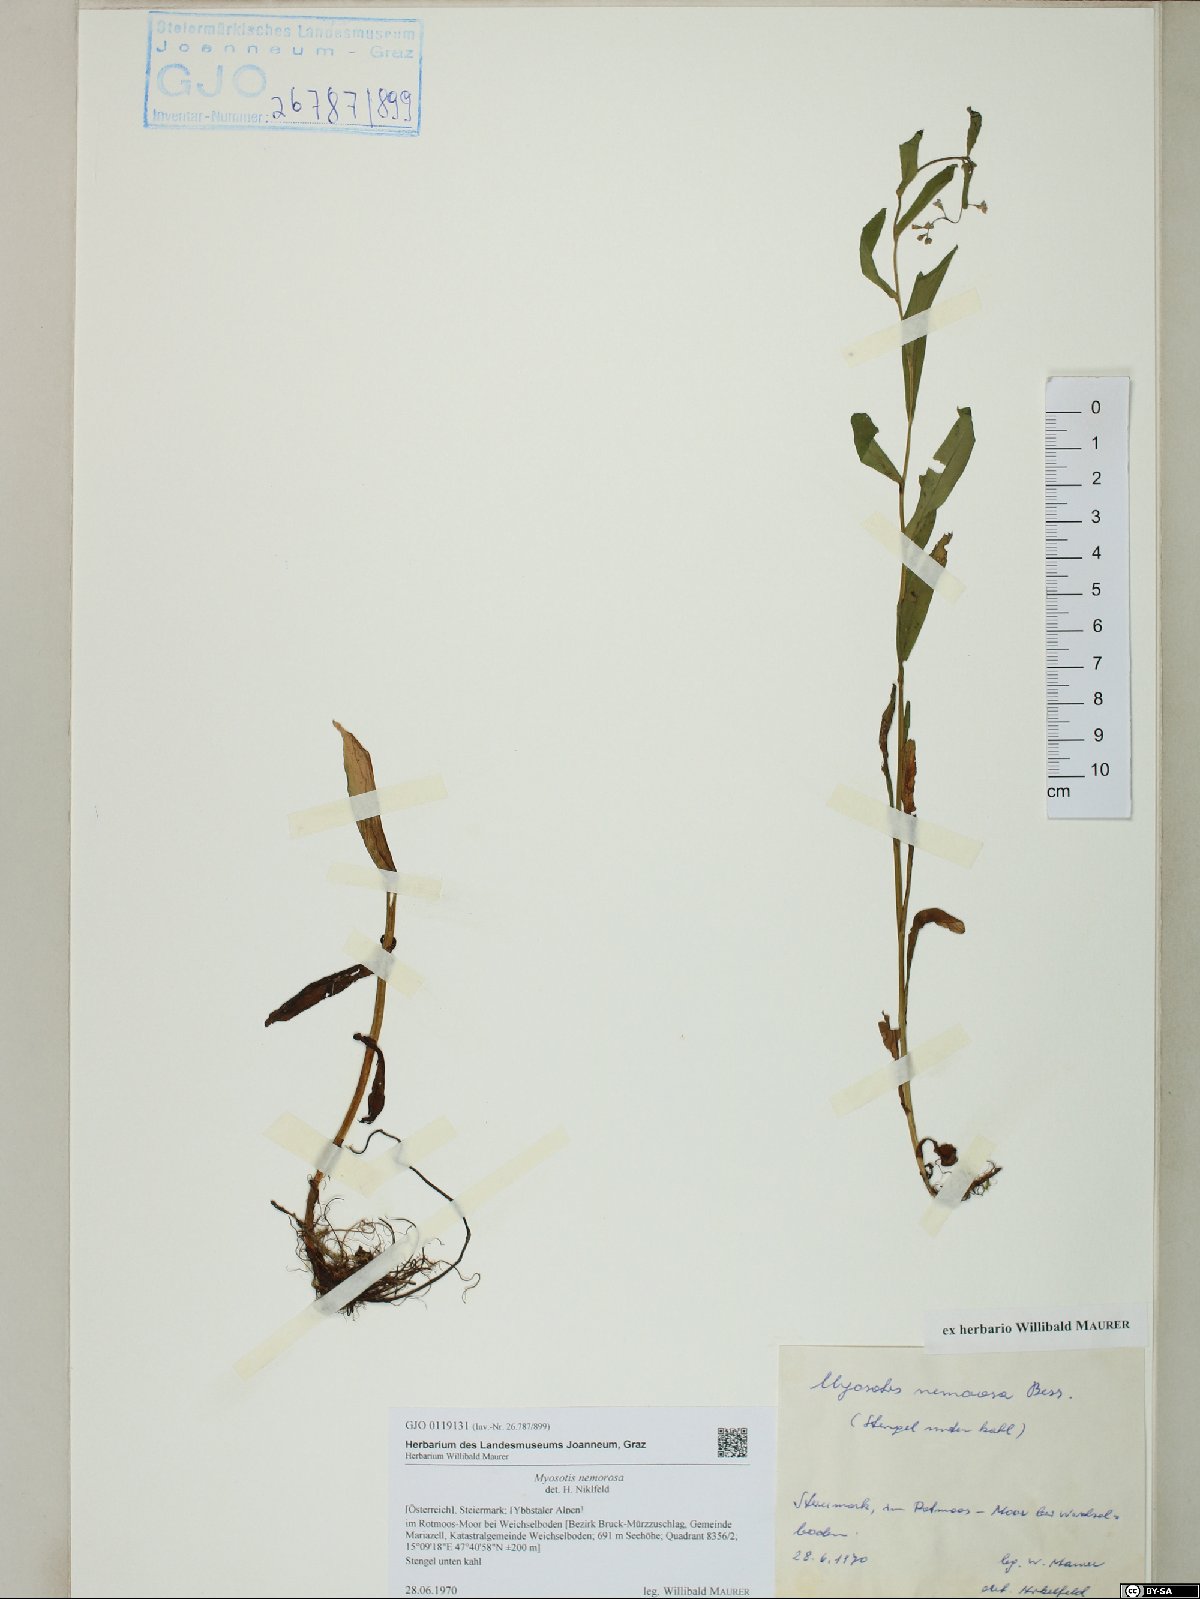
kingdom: Plantae
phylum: Tracheophyta
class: Magnoliopsida
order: Boraginales
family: Boraginaceae
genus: Myosotis
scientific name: Myosotis nemorosa
